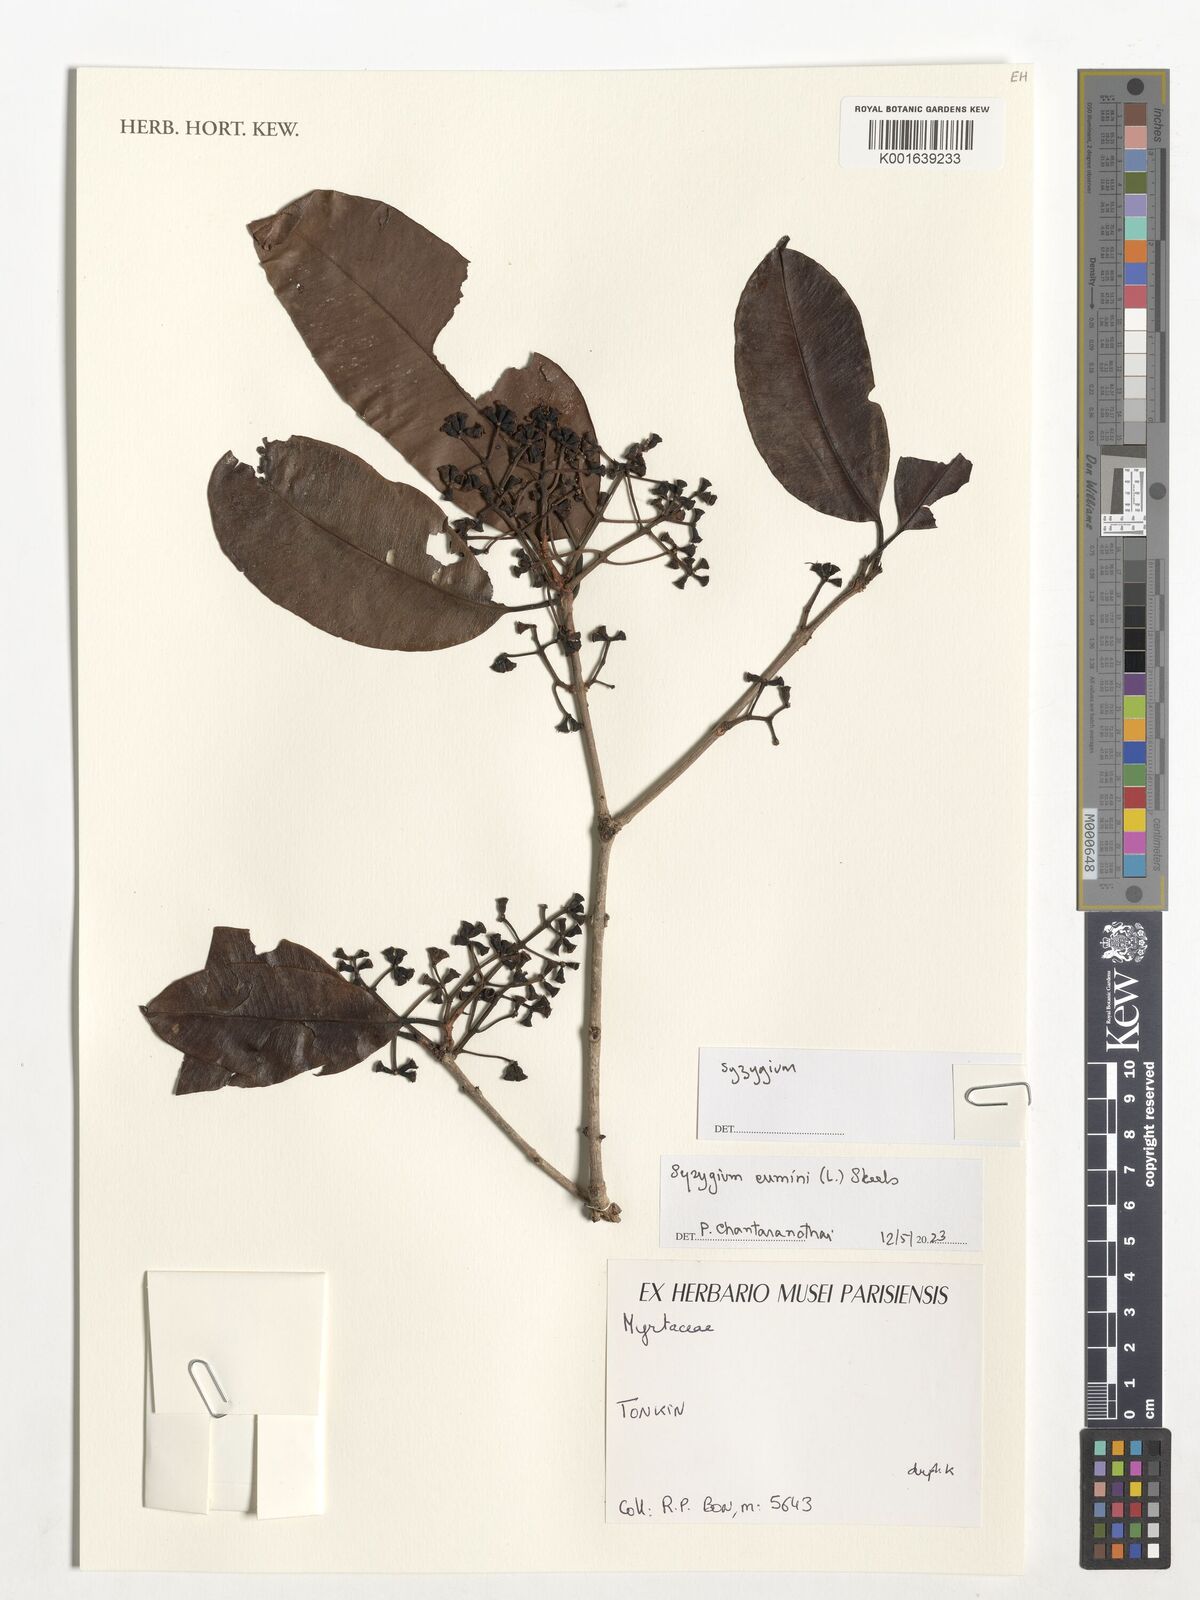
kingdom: Plantae
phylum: Tracheophyta
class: Magnoliopsida
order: Myrtales
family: Myrtaceae
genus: Syzygium
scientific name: Syzygium cumini
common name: Java plum
